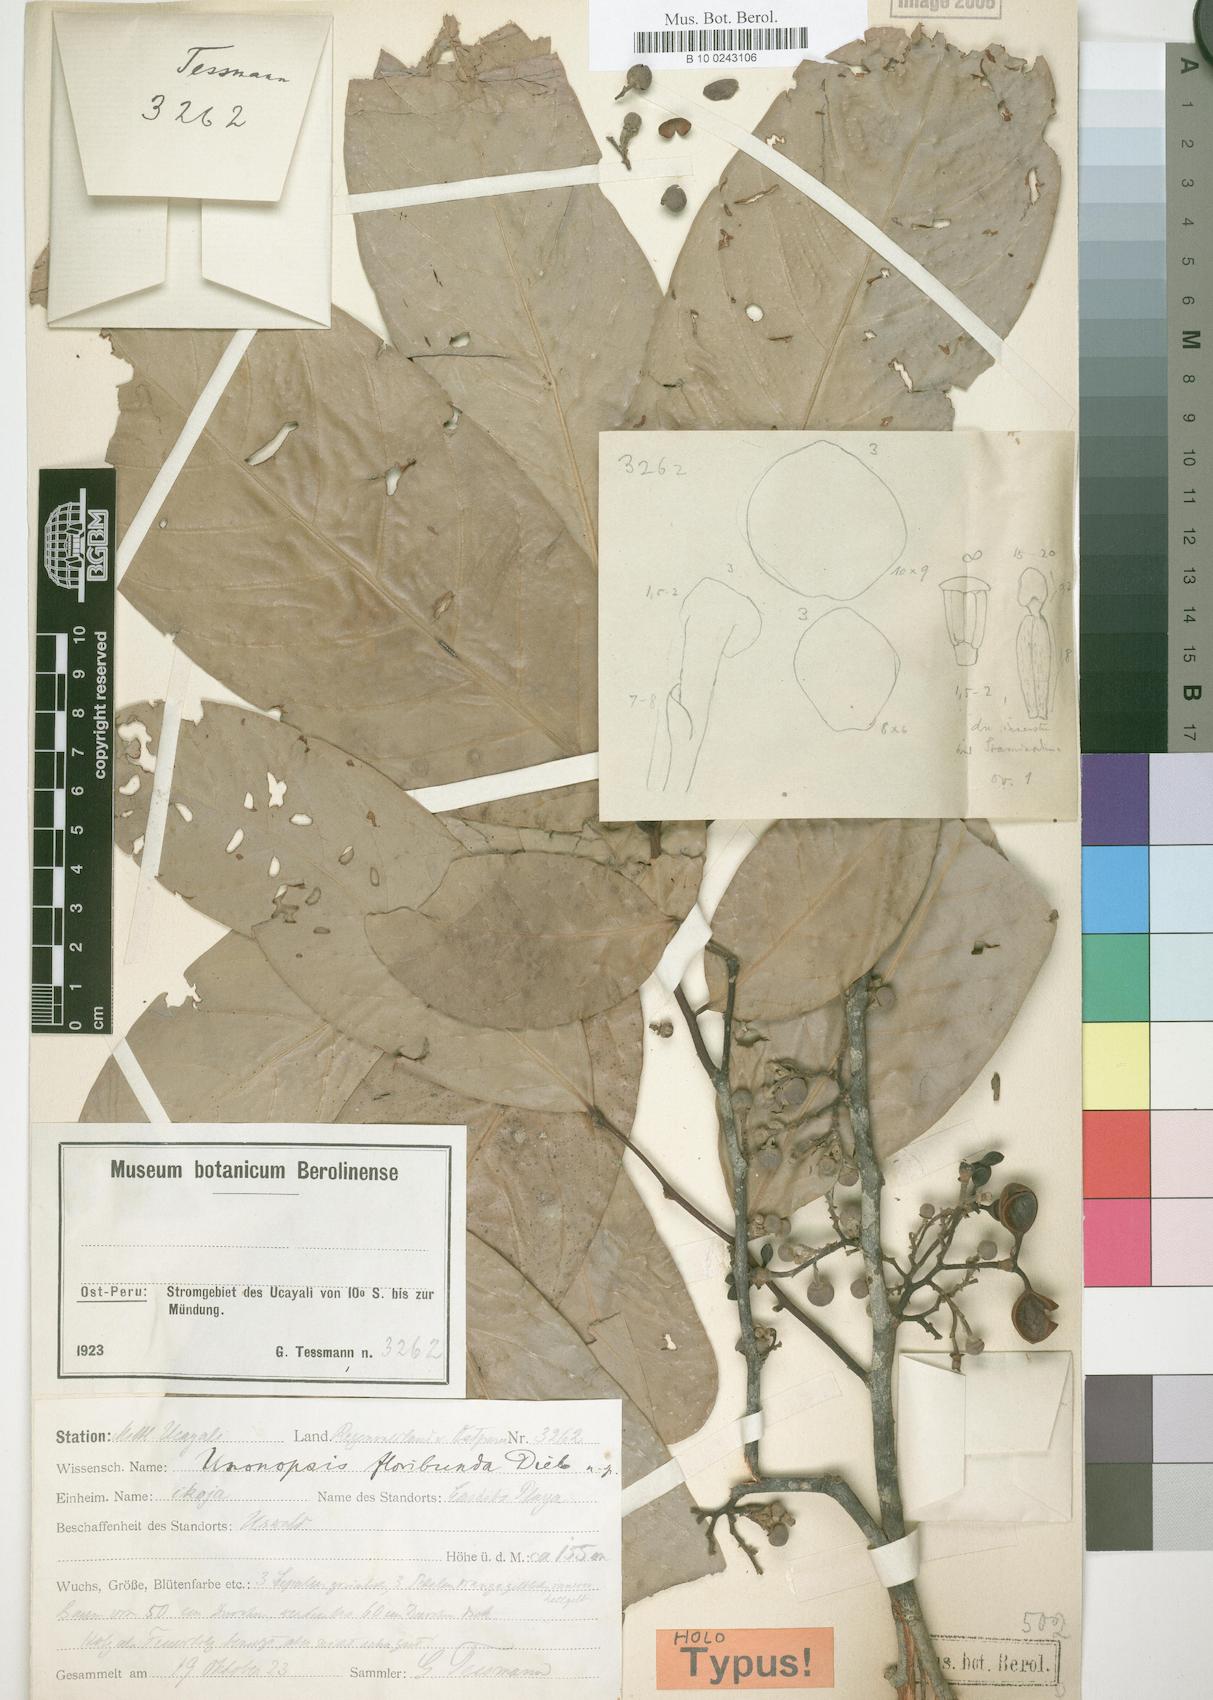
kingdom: Plantae
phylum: Tracheophyta
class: Magnoliopsida
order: Magnoliales
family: Annonaceae
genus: Unonopsis
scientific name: Unonopsis floribunda
